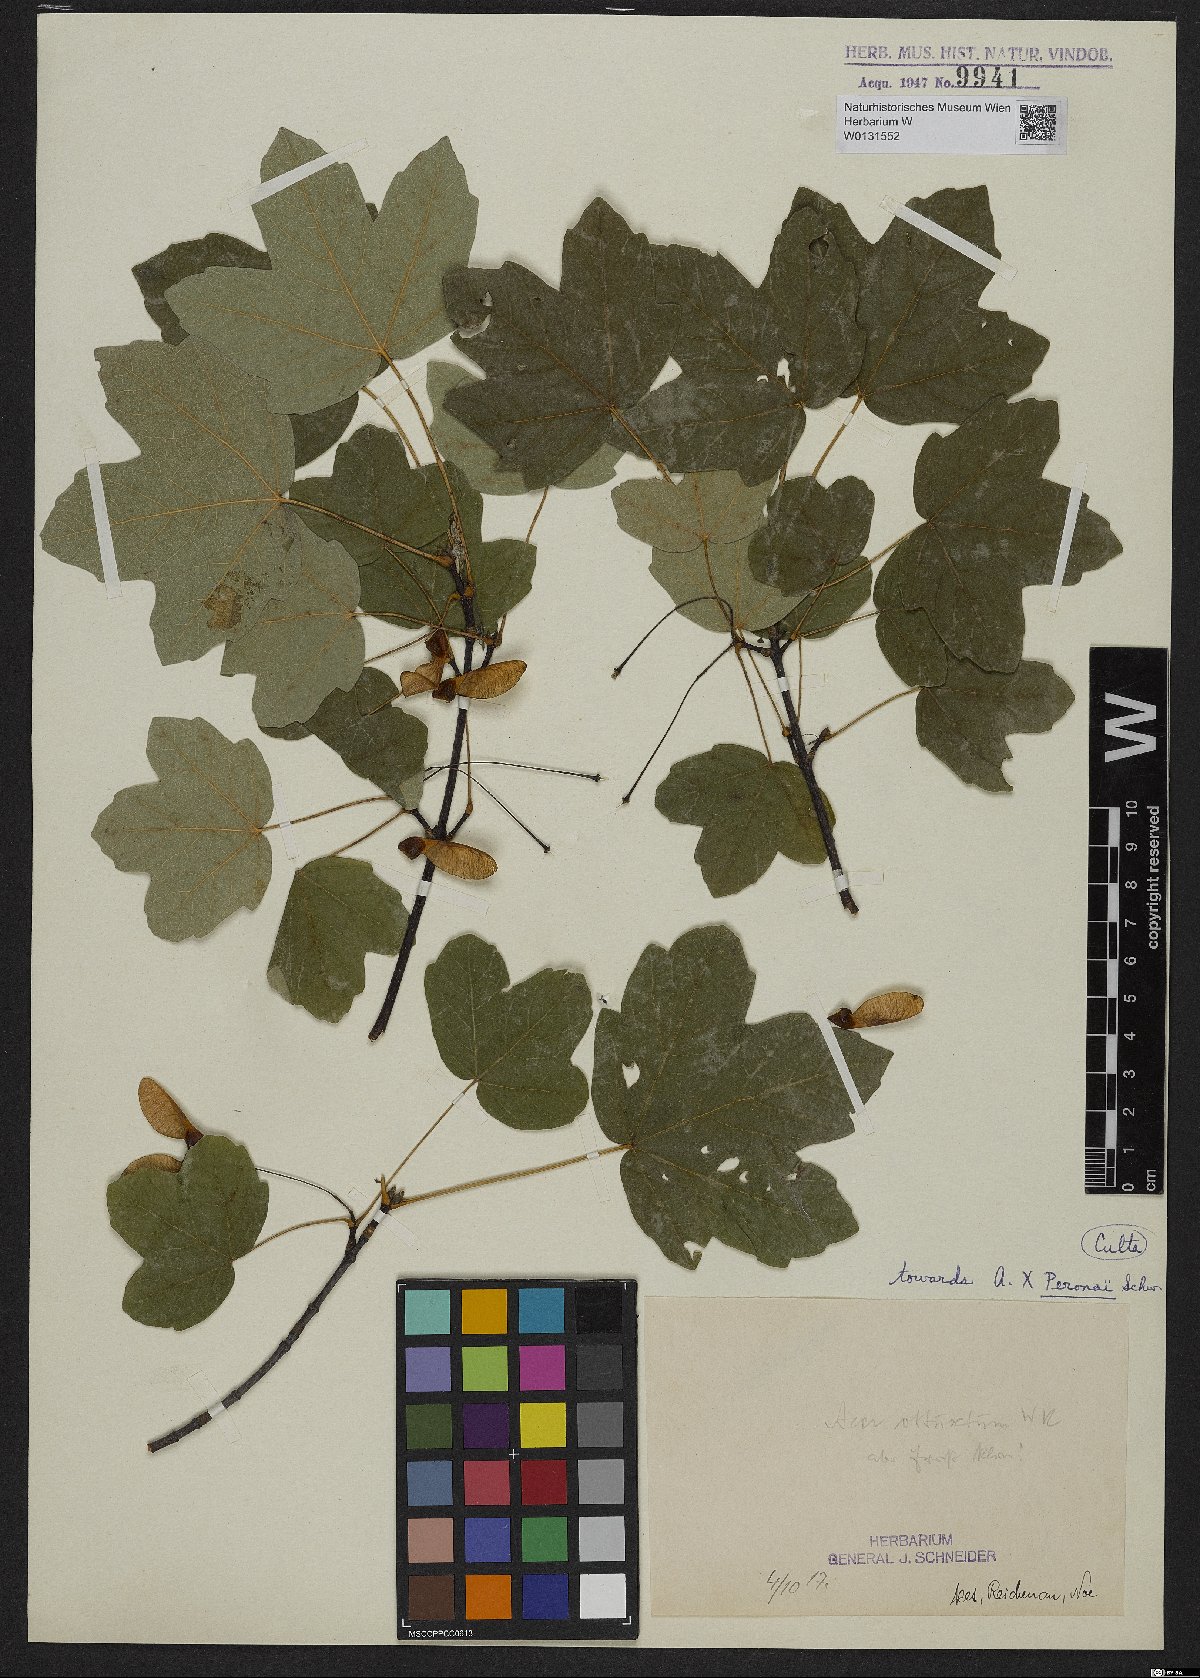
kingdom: Plantae
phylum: Tracheophyta
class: Magnoliopsida
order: Sapindales
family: Aceraceae
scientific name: Aceraceae
